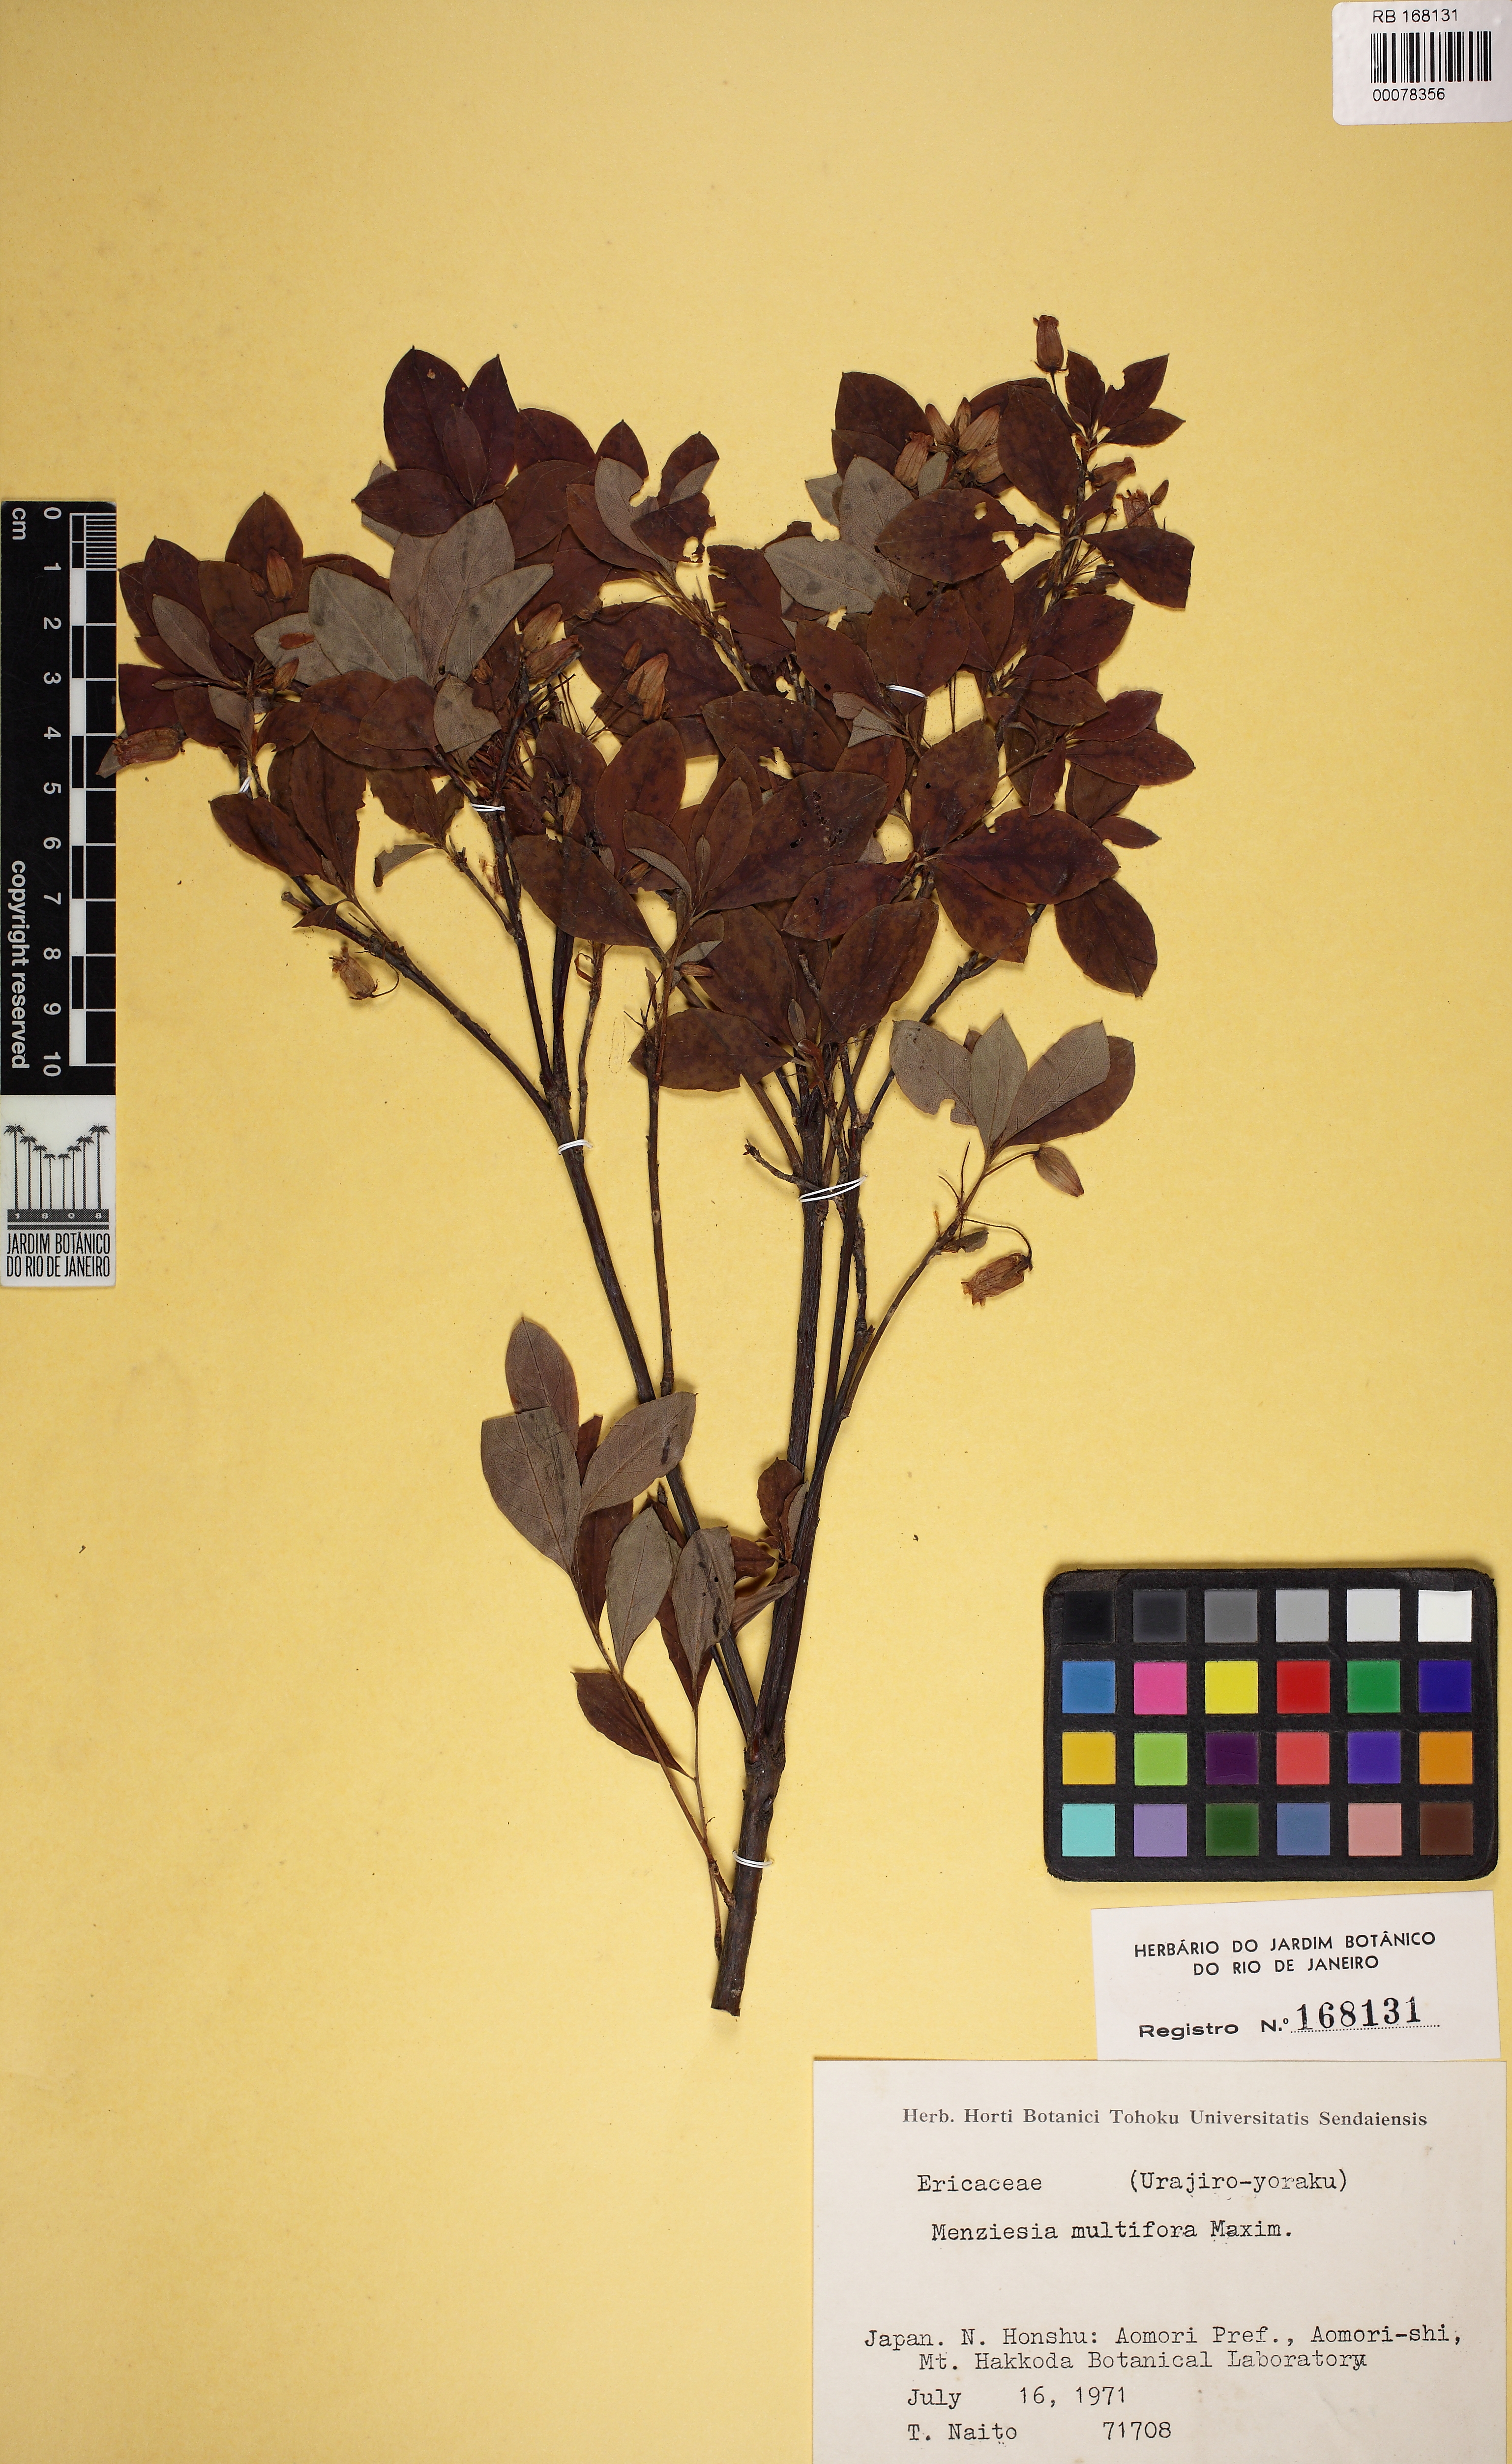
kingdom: Plantae
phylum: Tracheophyta
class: Magnoliopsida
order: Ericales
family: Ericaceae
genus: Rhododendron
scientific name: Rhododendron multiflorum
